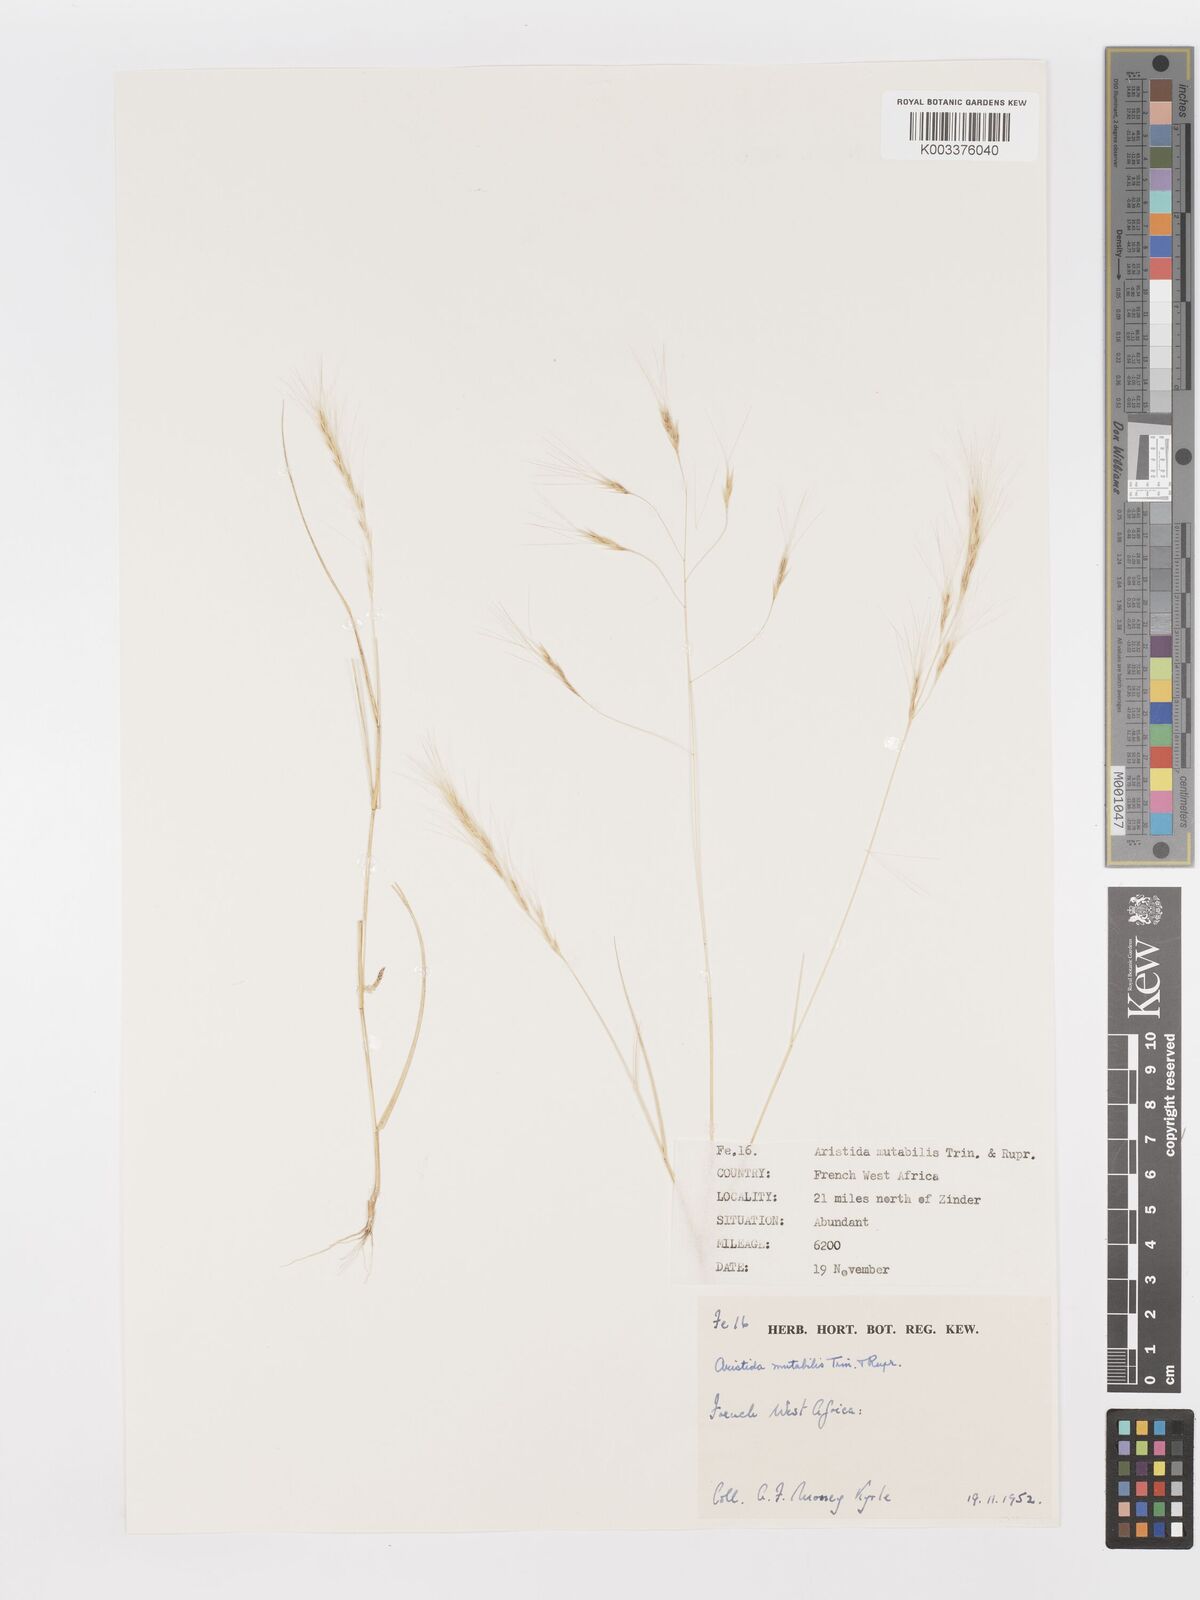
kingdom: Plantae
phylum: Tracheophyta
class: Liliopsida
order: Poales
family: Poaceae
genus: Aristida
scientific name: Aristida mutabilis
